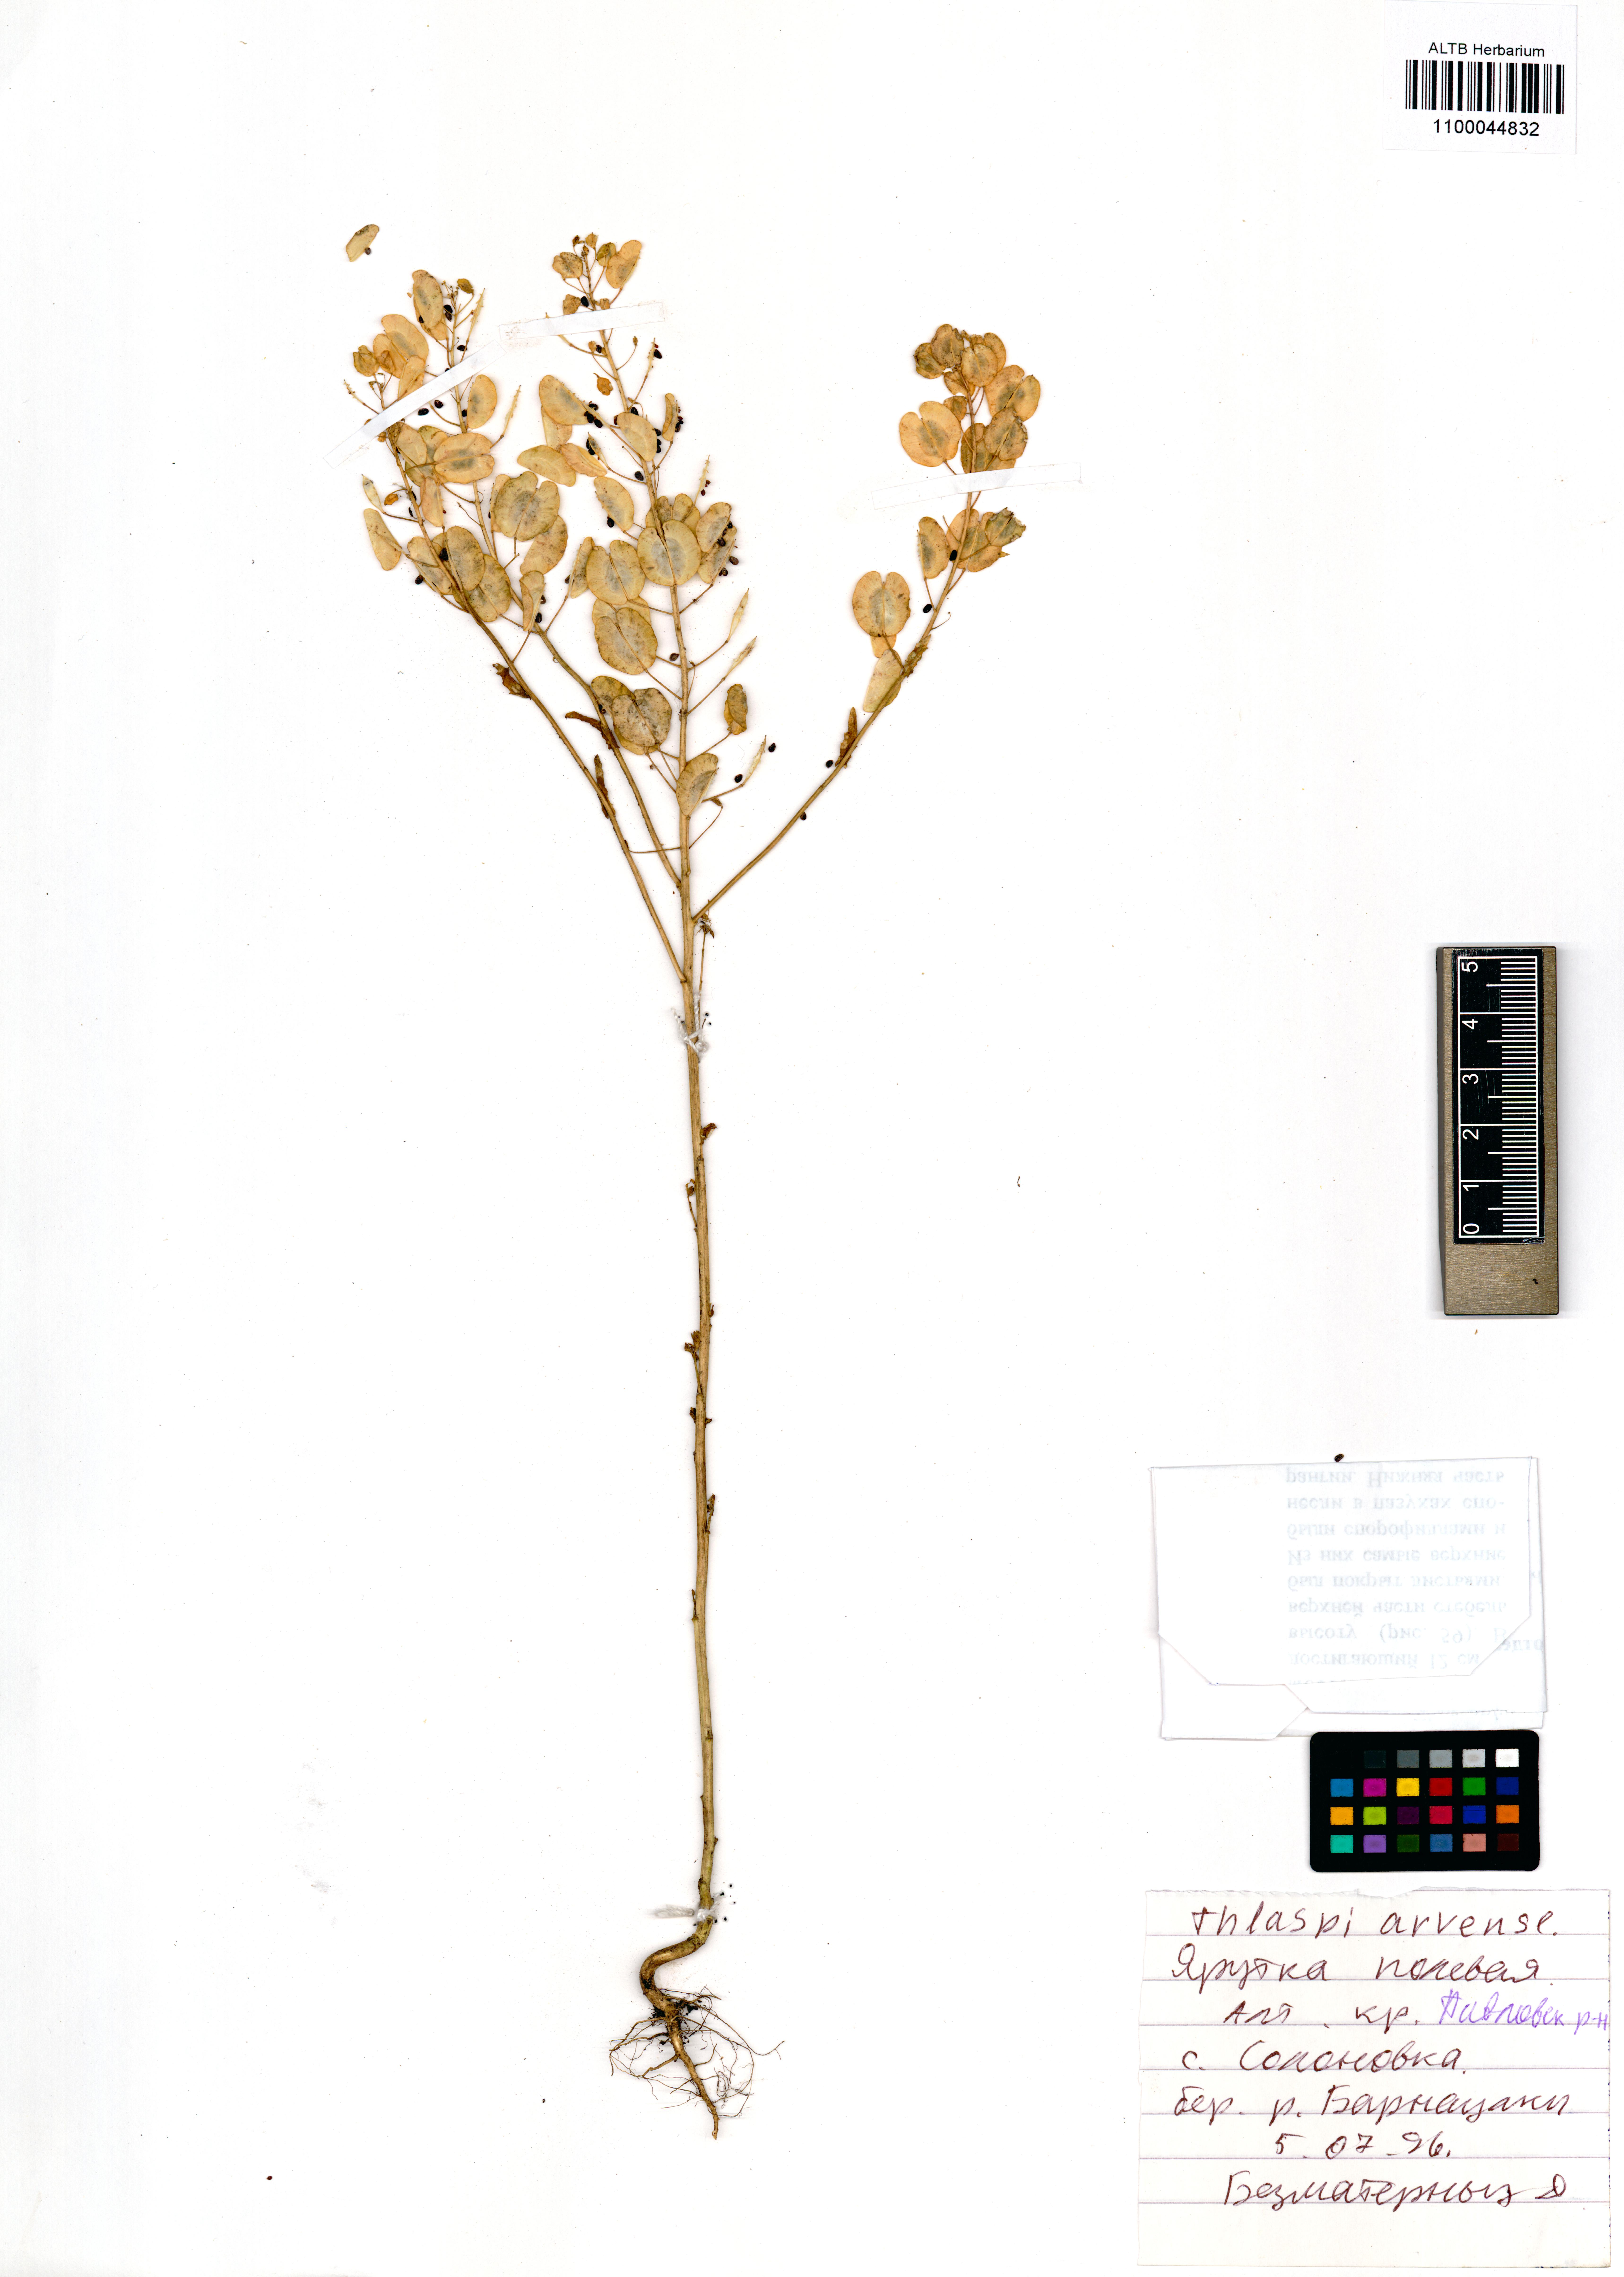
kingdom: Plantae
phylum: Tracheophyta
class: Magnoliopsida
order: Brassicales
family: Brassicaceae
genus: Thlaspi
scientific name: Thlaspi arvense
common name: Field pennycress
